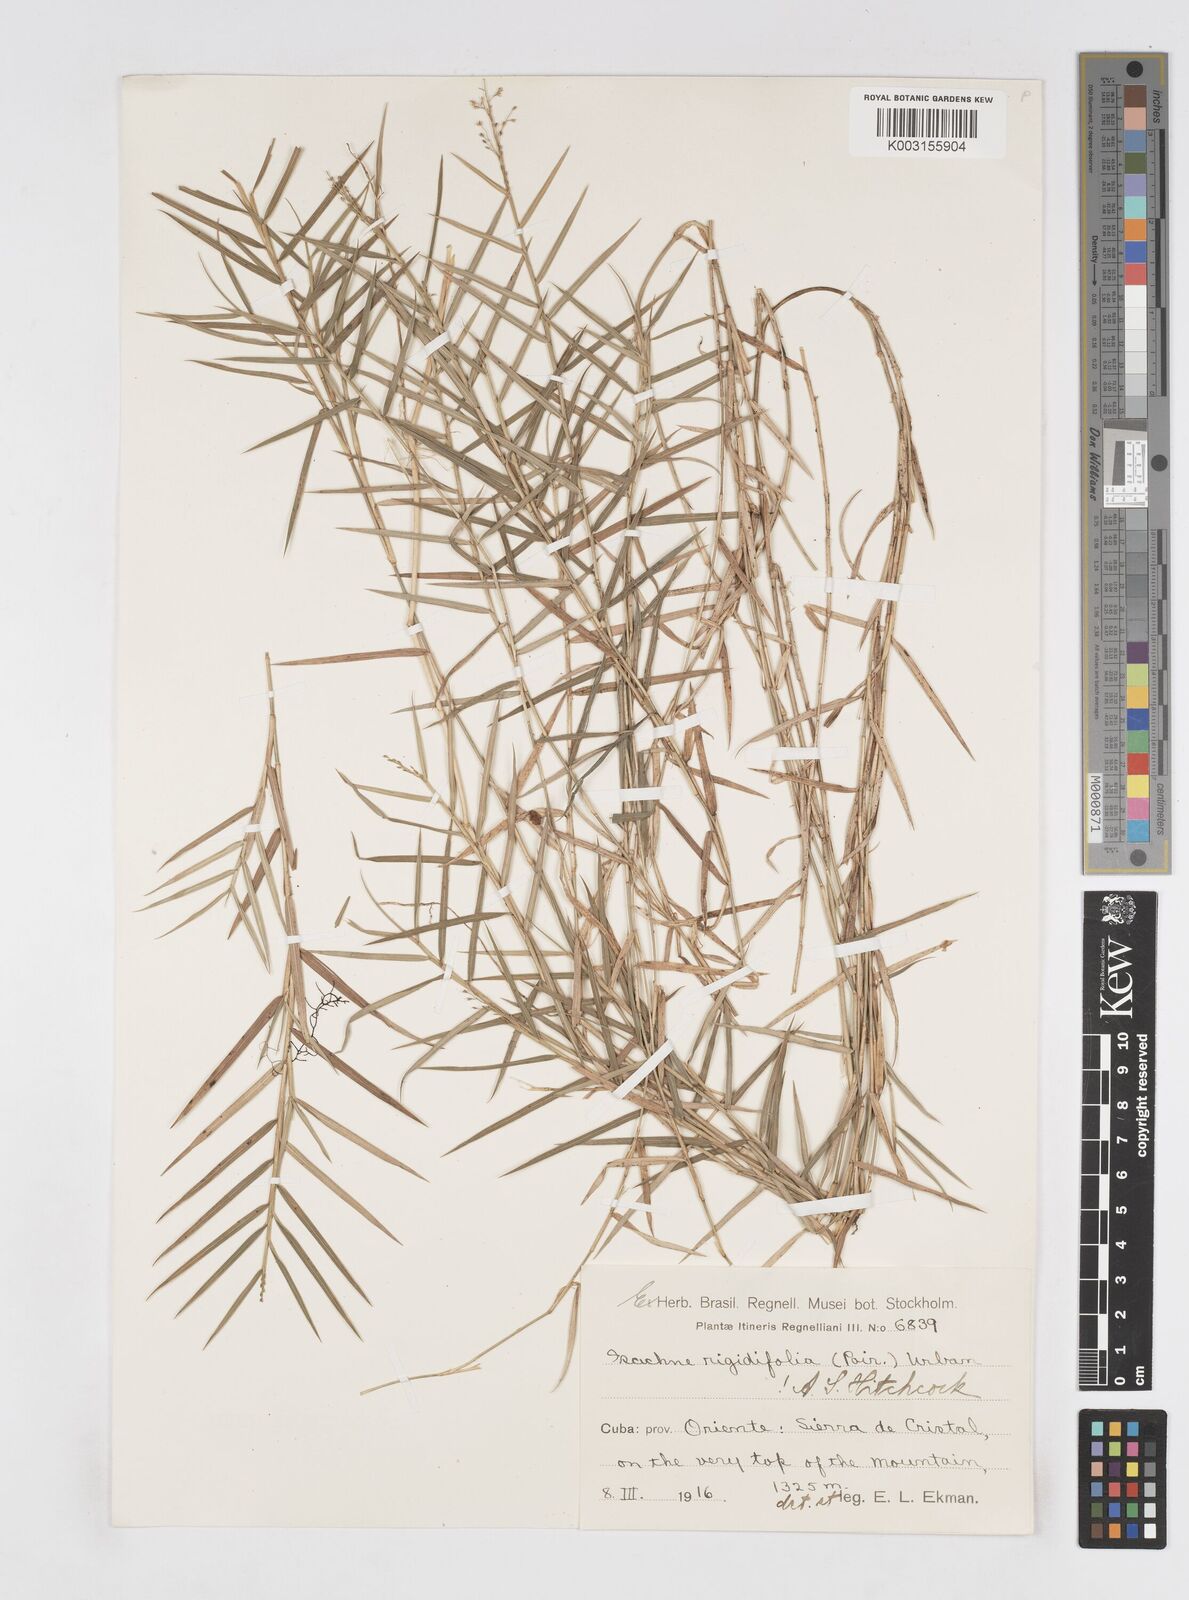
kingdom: Plantae
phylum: Tracheophyta
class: Liliopsida
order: Poales
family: Poaceae
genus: Isachne
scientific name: Isachne rigidifolia
